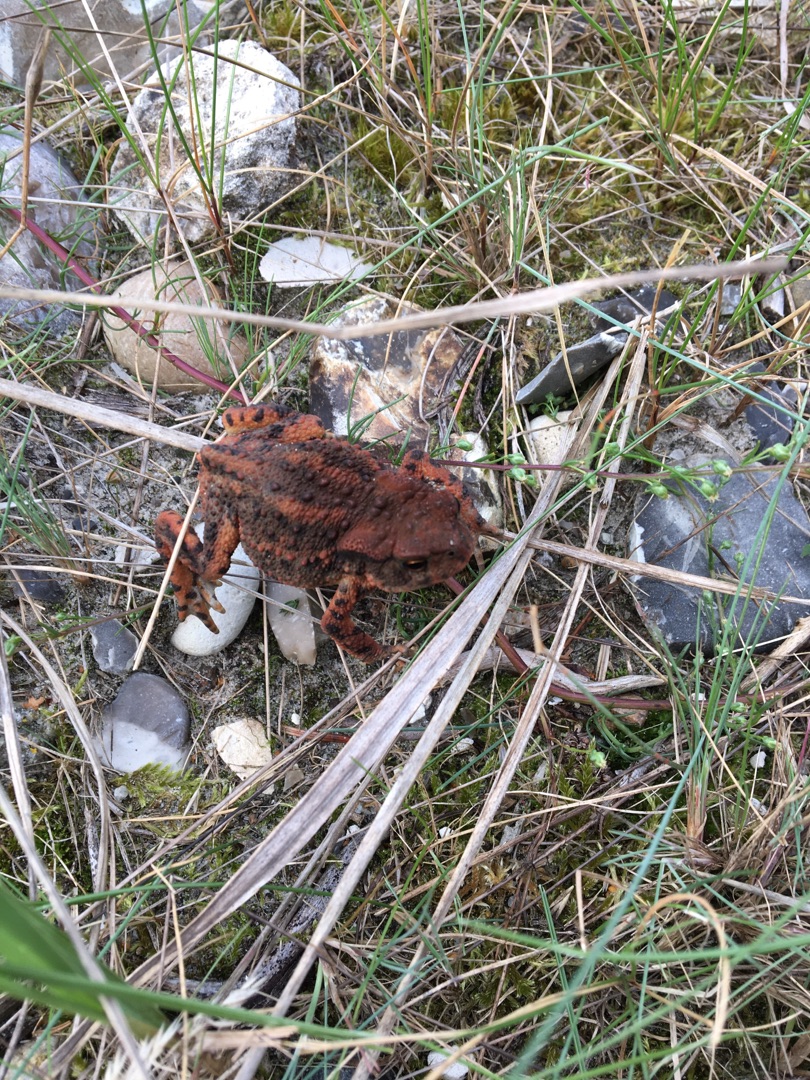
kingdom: Animalia
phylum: Chordata
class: Amphibia
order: Anura
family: Bufonidae
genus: Bufo
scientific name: Bufo bufo
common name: Skrubtudse
